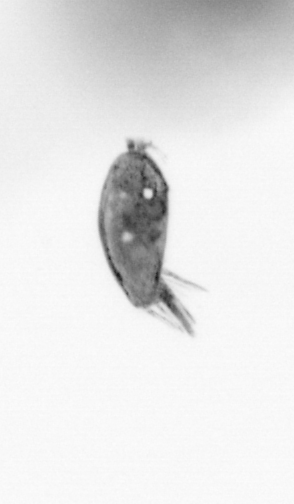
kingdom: Animalia
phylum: Arthropoda
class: Maxillopoda
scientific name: Maxillopoda
